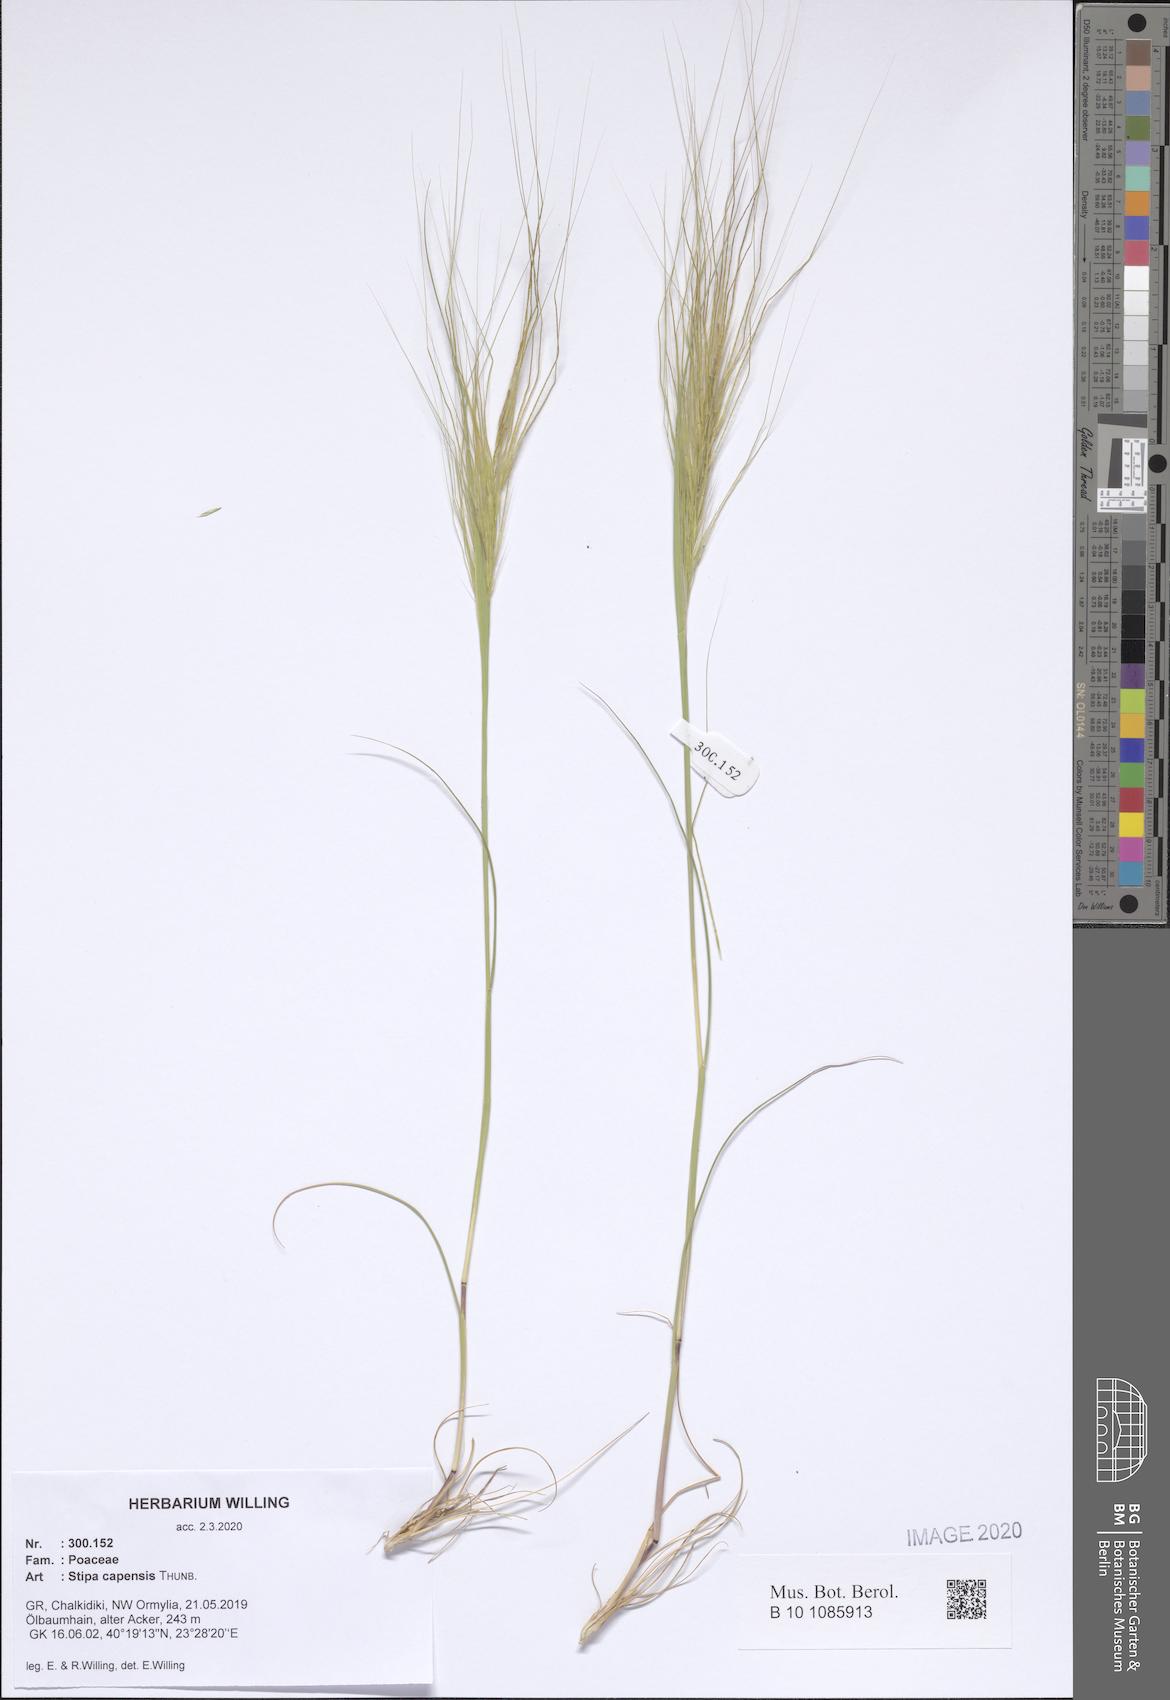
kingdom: Plantae
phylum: Tracheophyta
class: Liliopsida
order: Poales
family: Poaceae
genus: Stipellula
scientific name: Stipellula capensis
